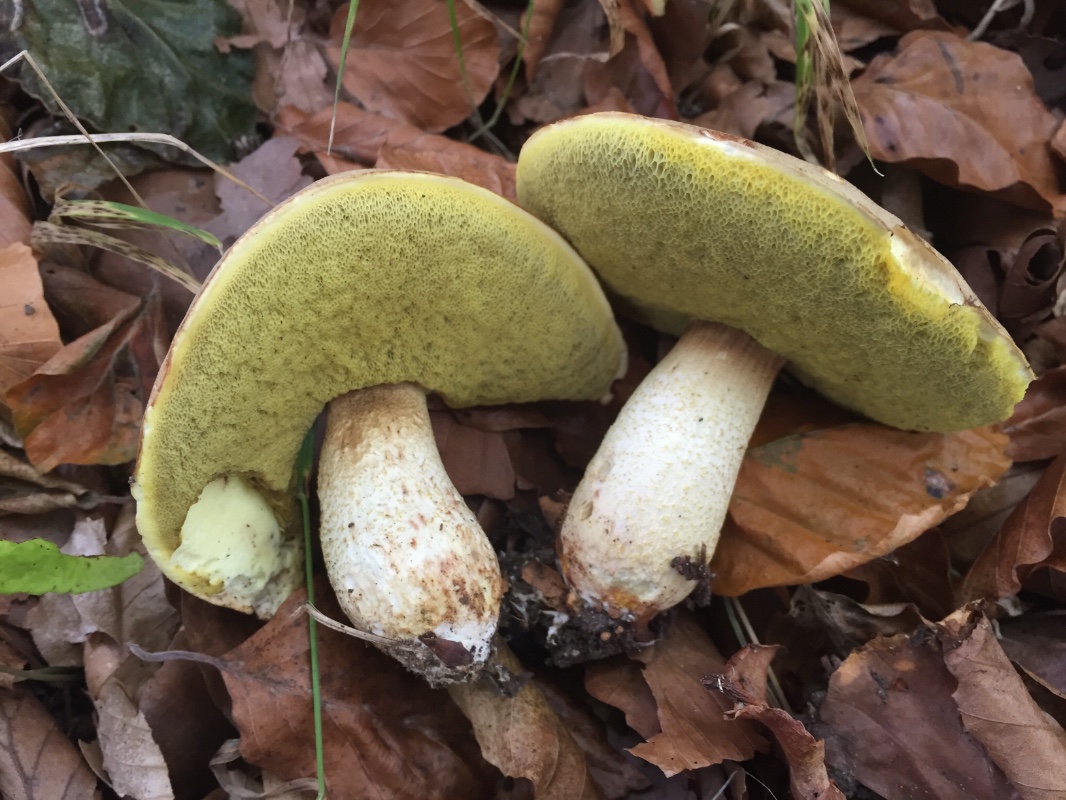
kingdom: Fungi
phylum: Basidiomycota
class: Agaricomycetes
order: Boletales
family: Boletaceae
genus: Hemileccinum
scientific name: Hemileccinum impolitum
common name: bleg rørhat
